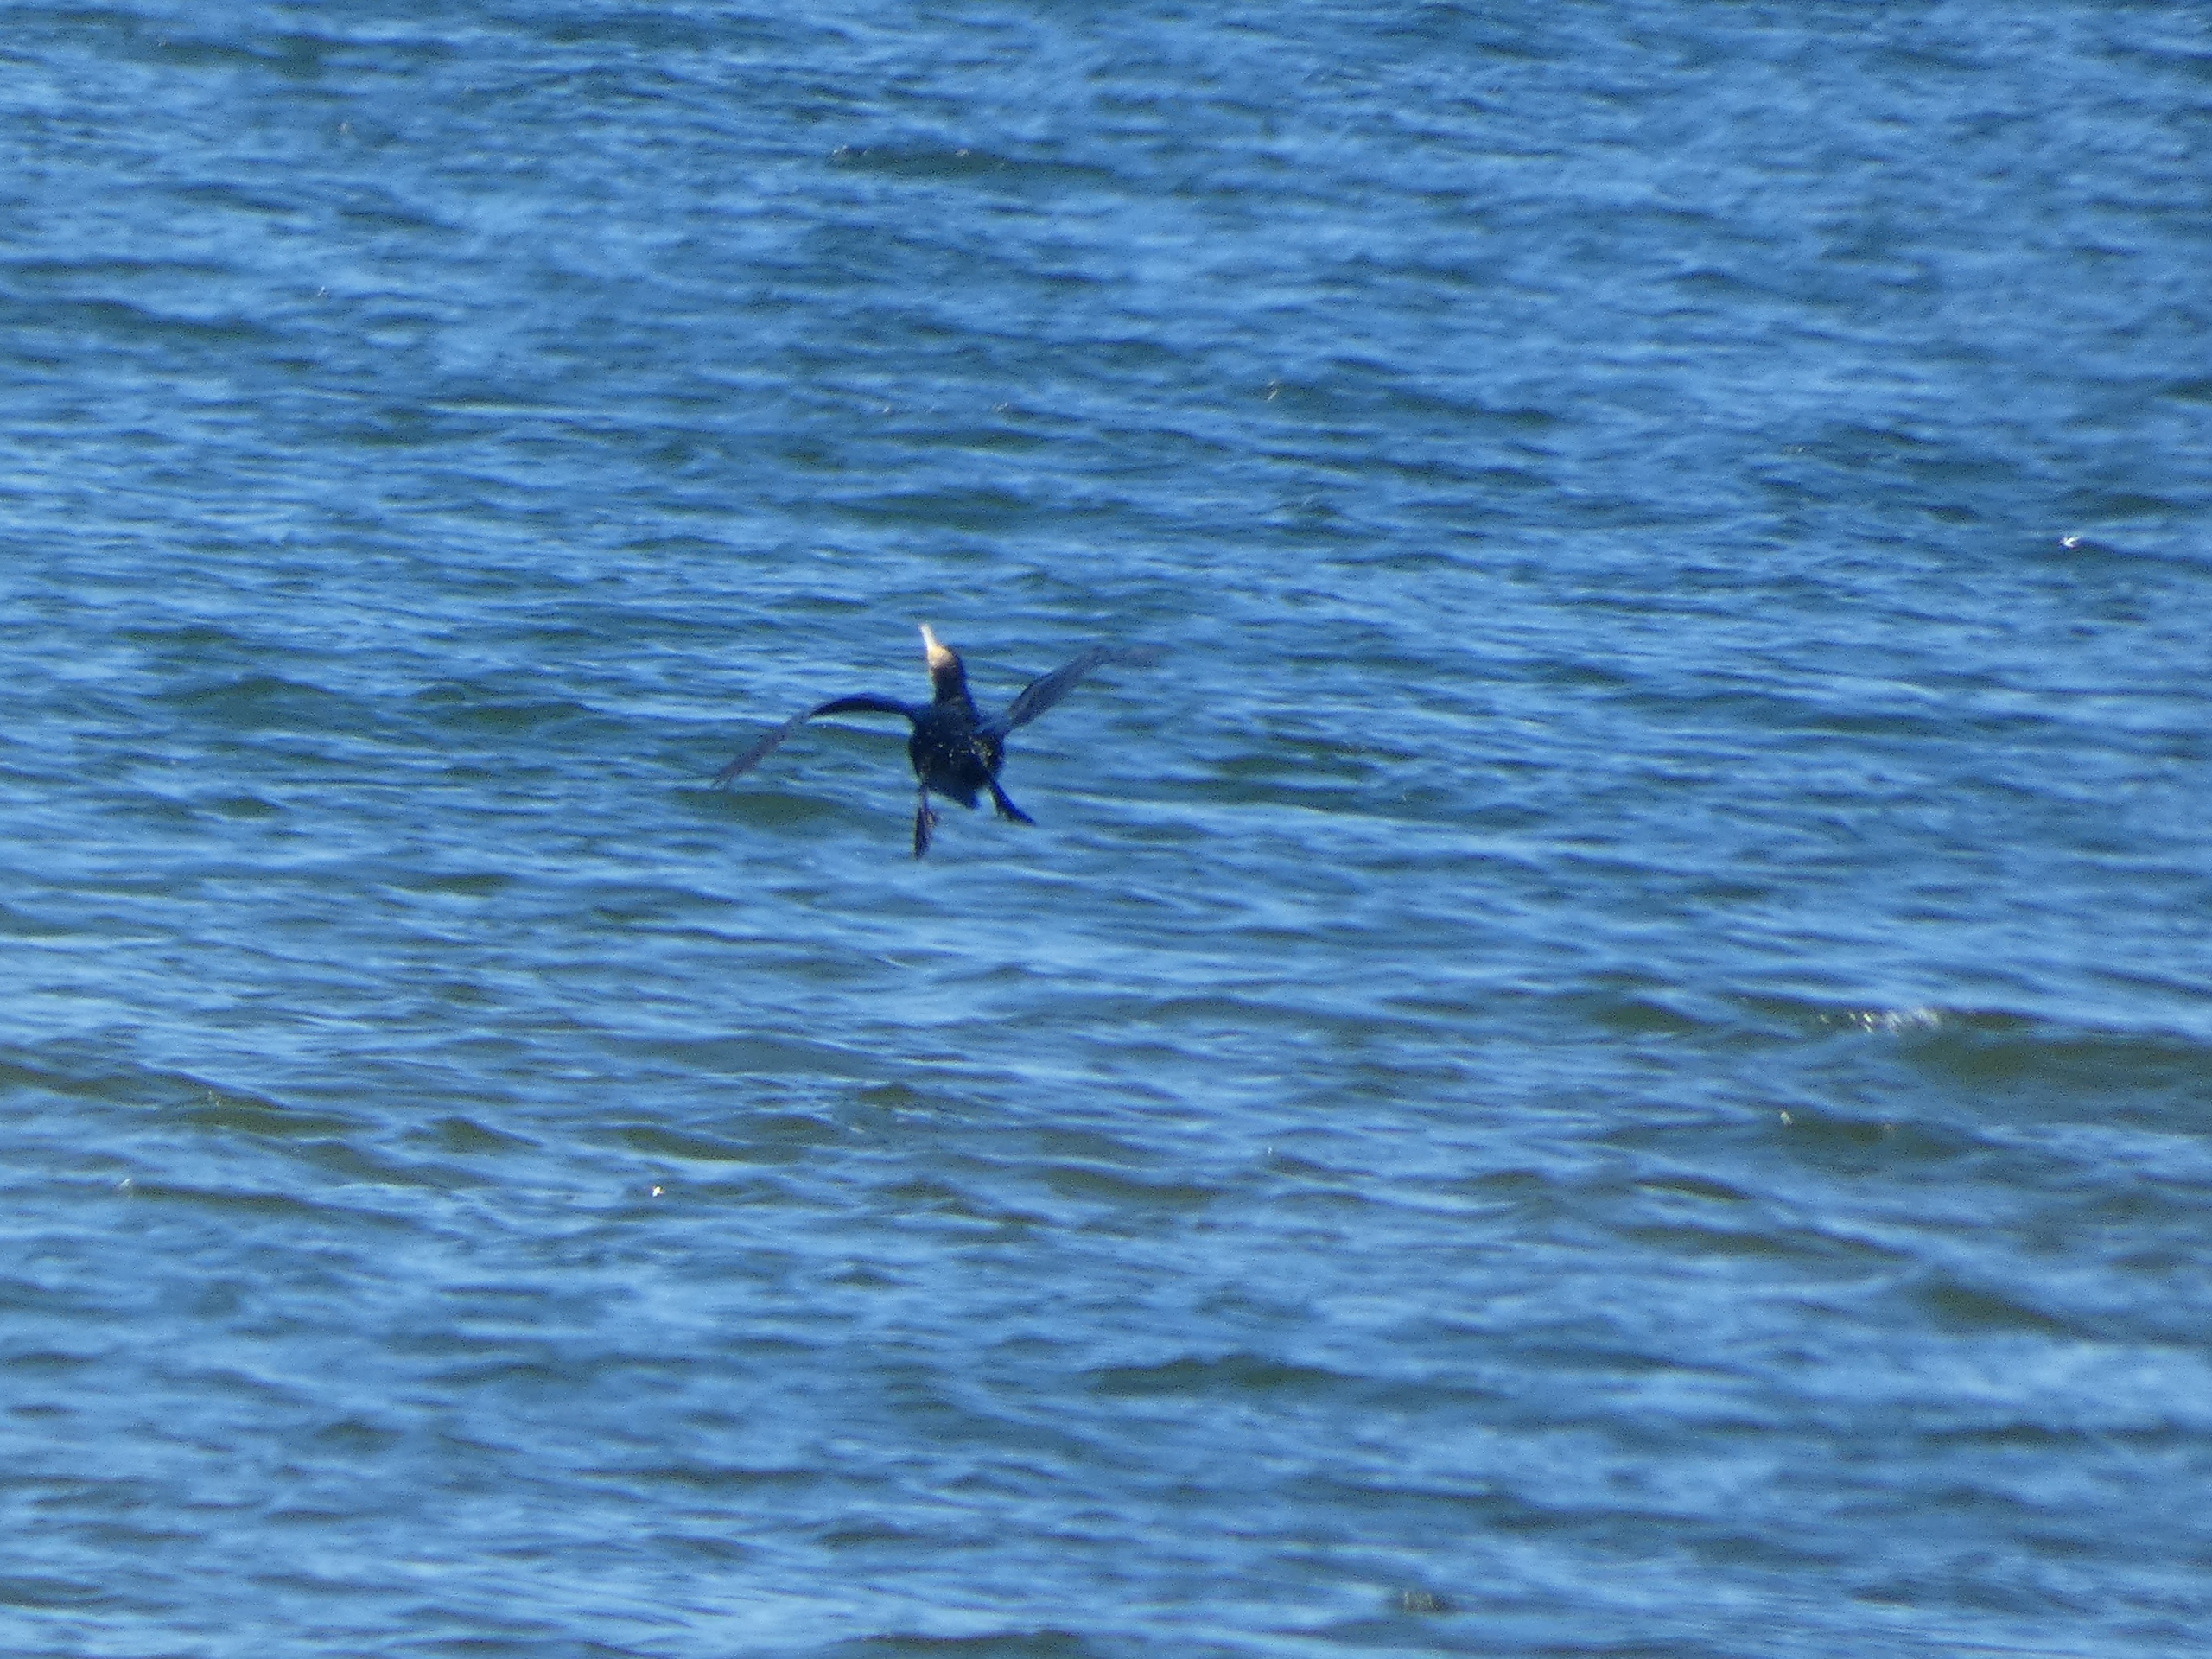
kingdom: Animalia
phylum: Chordata
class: Aves
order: Suliformes
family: Phalacrocoracidae
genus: Phalacrocorax
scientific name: Phalacrocorax carbo
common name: Skarv
